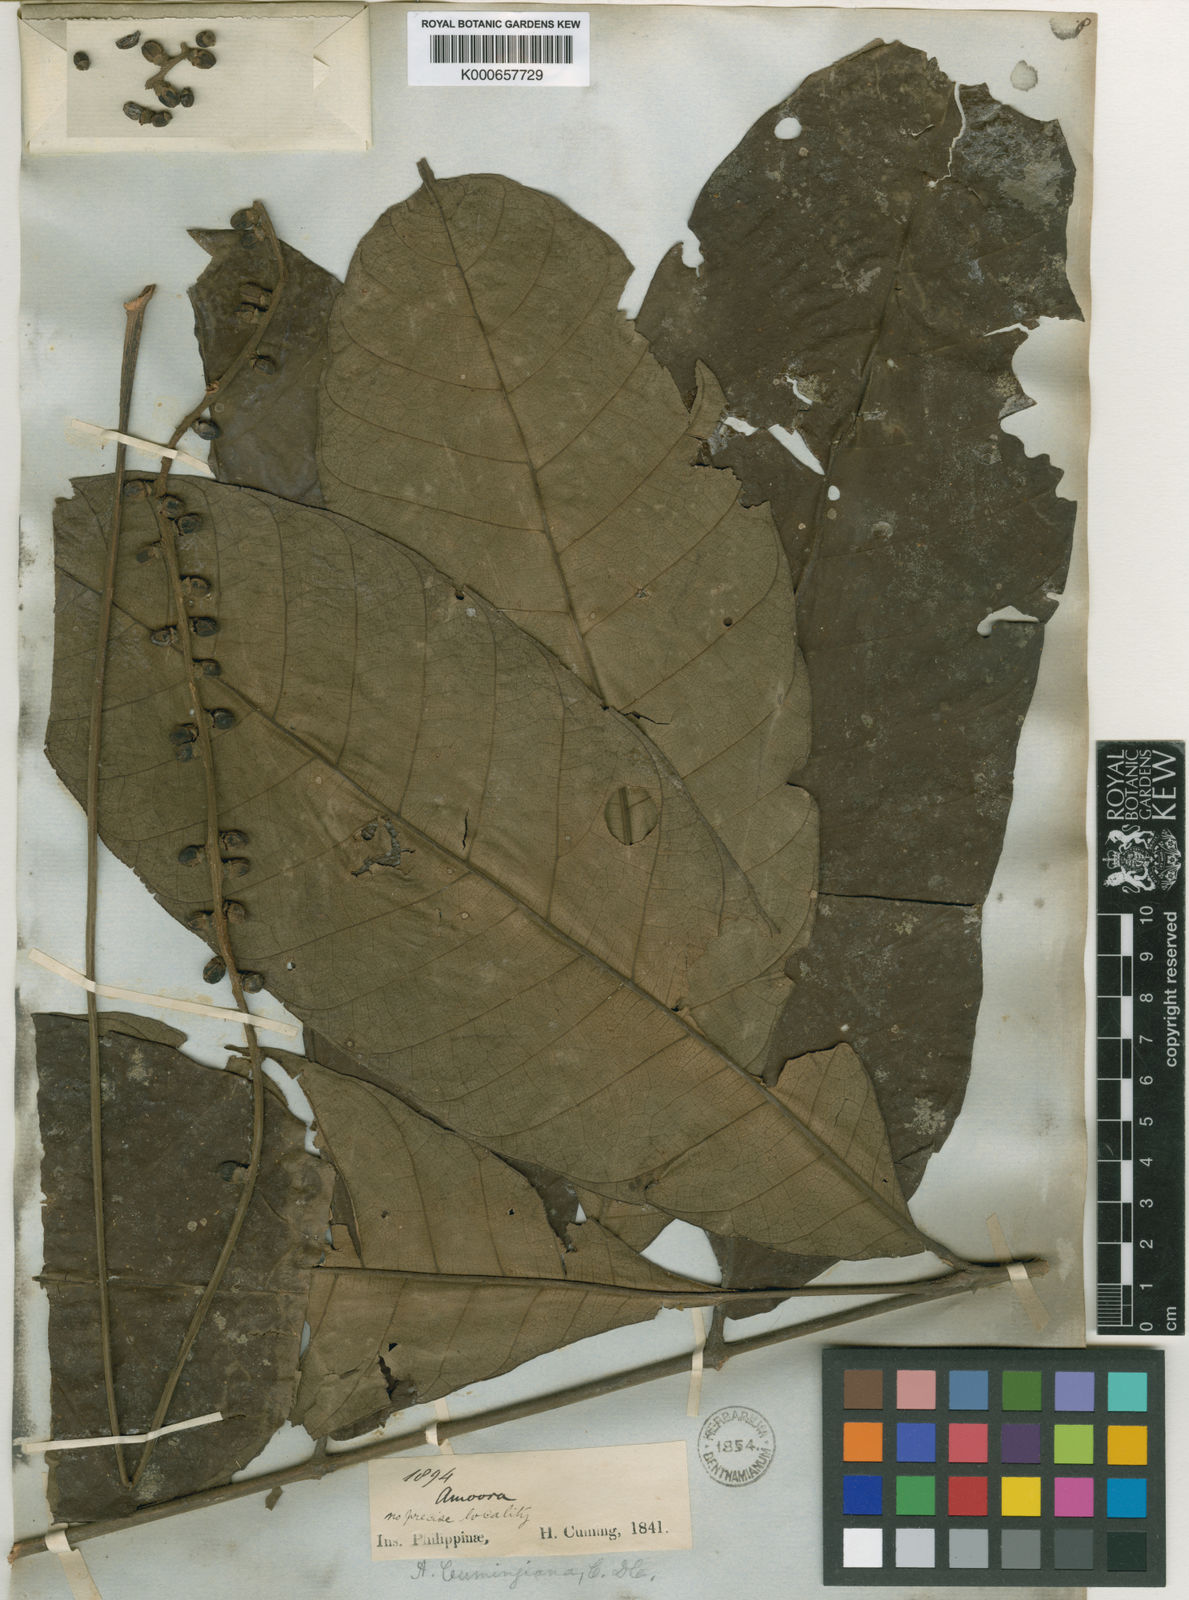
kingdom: Plantae
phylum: Tracheophyta
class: Magnoliopsida
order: Sapindales
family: Meliaceae
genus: Aphanamixis
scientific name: Aphanamixis polystachya
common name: Pithraj tree
